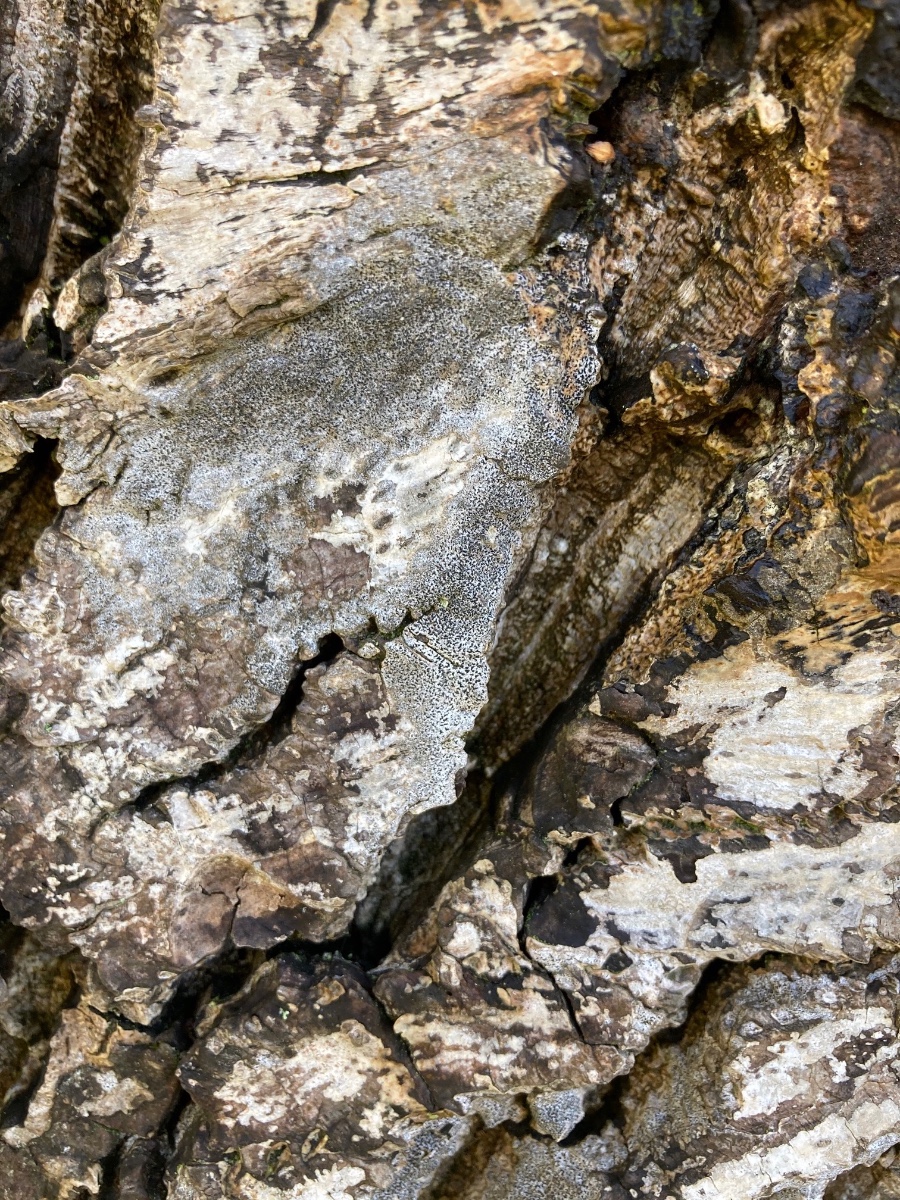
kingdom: Fungi
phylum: Ascomycota
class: Arthoniomycetes
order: Arthoniales
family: Roccellaceae
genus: Pseudoschismatomma
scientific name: Pseudoschismatomma rufescens
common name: brun bogstavlav
